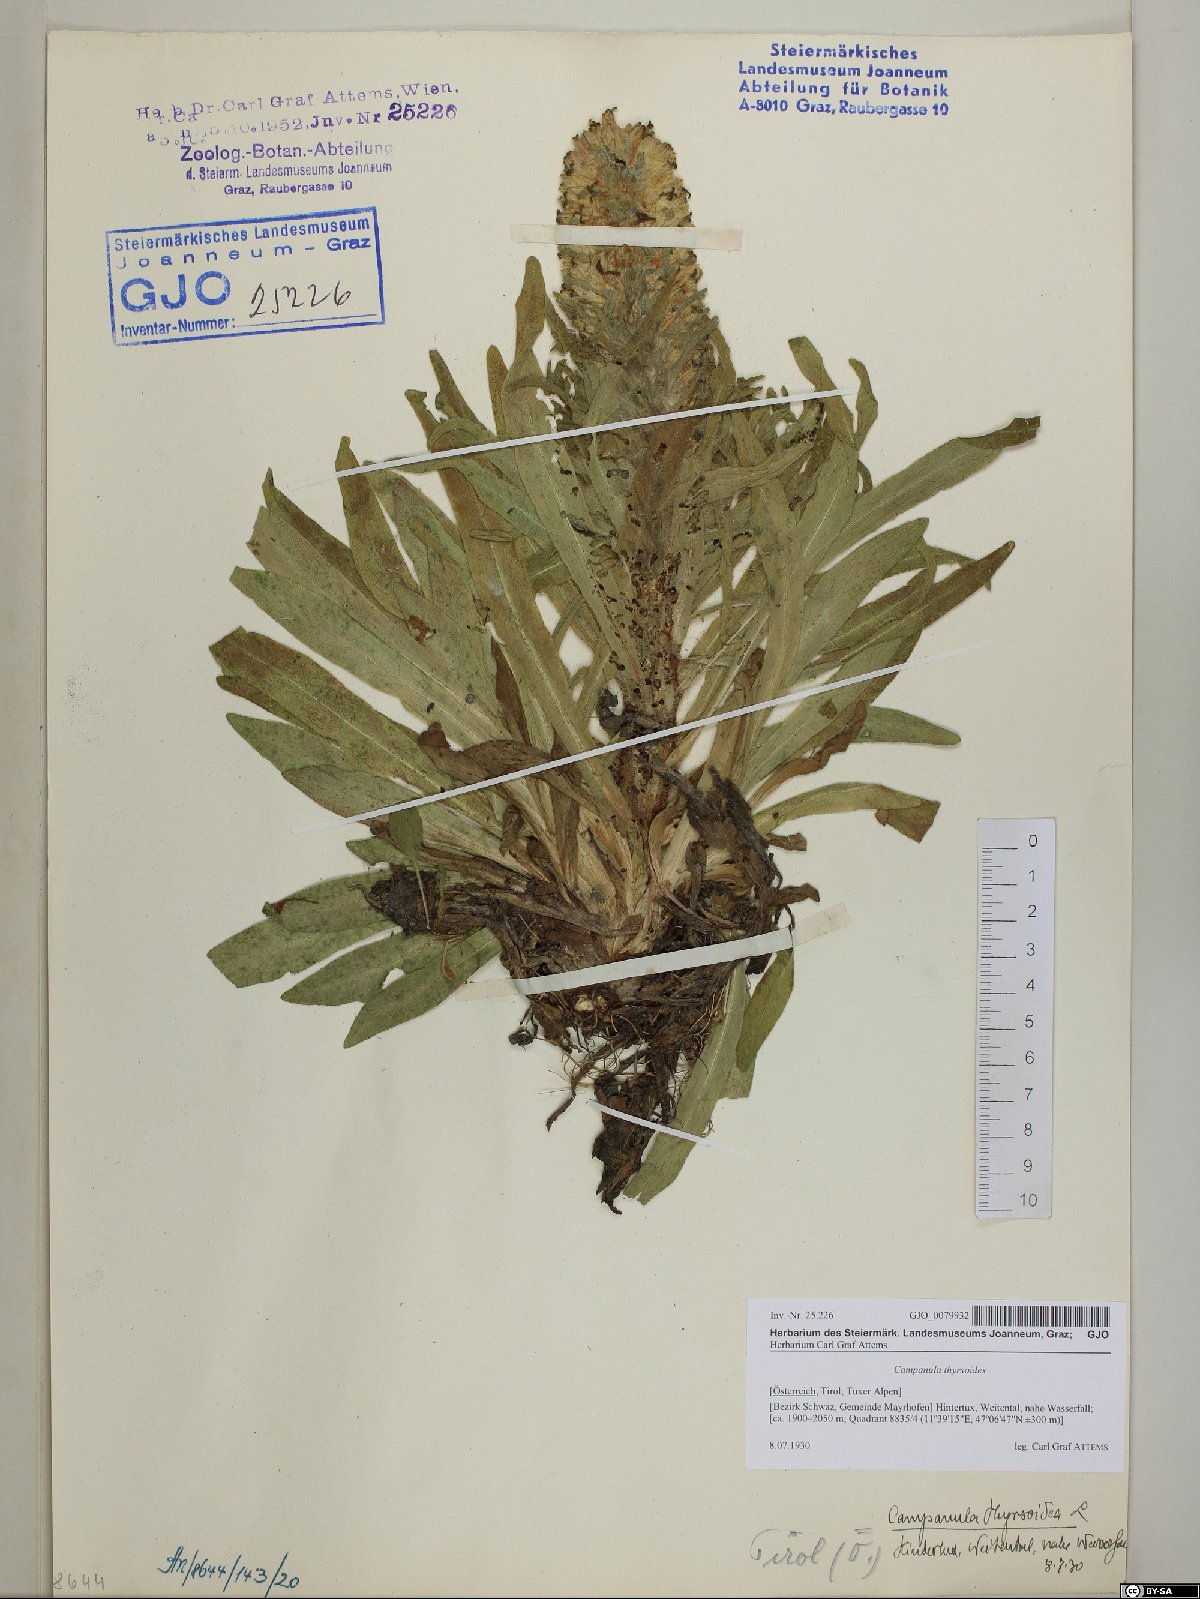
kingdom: Plantae
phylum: Tracheophyta
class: Magnoliopsida
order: Asterales
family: Campanulaceae
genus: Campanula
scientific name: Campanula thyrsoides
